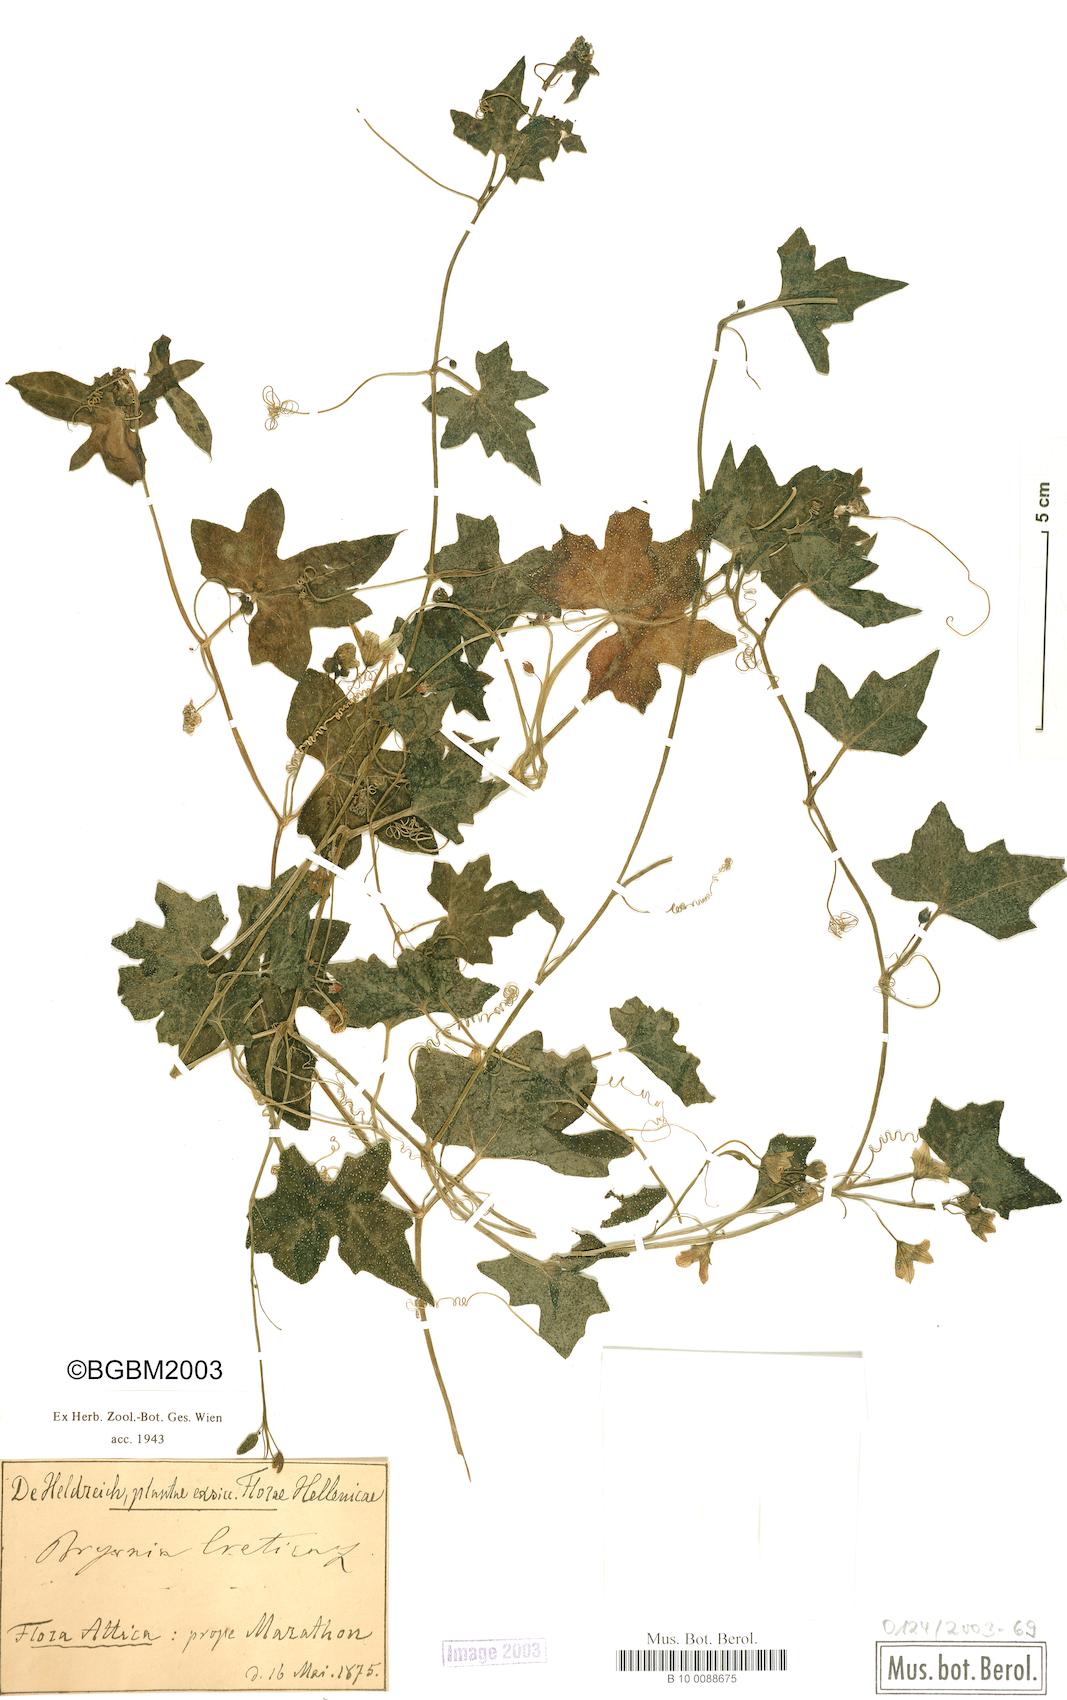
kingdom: Plantae
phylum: Tracheophyta
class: Magnoliopsida
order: Cucurbitales
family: Cucurbitaceae
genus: Bryonia
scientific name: Bryonia cretica
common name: Cretan bryony
